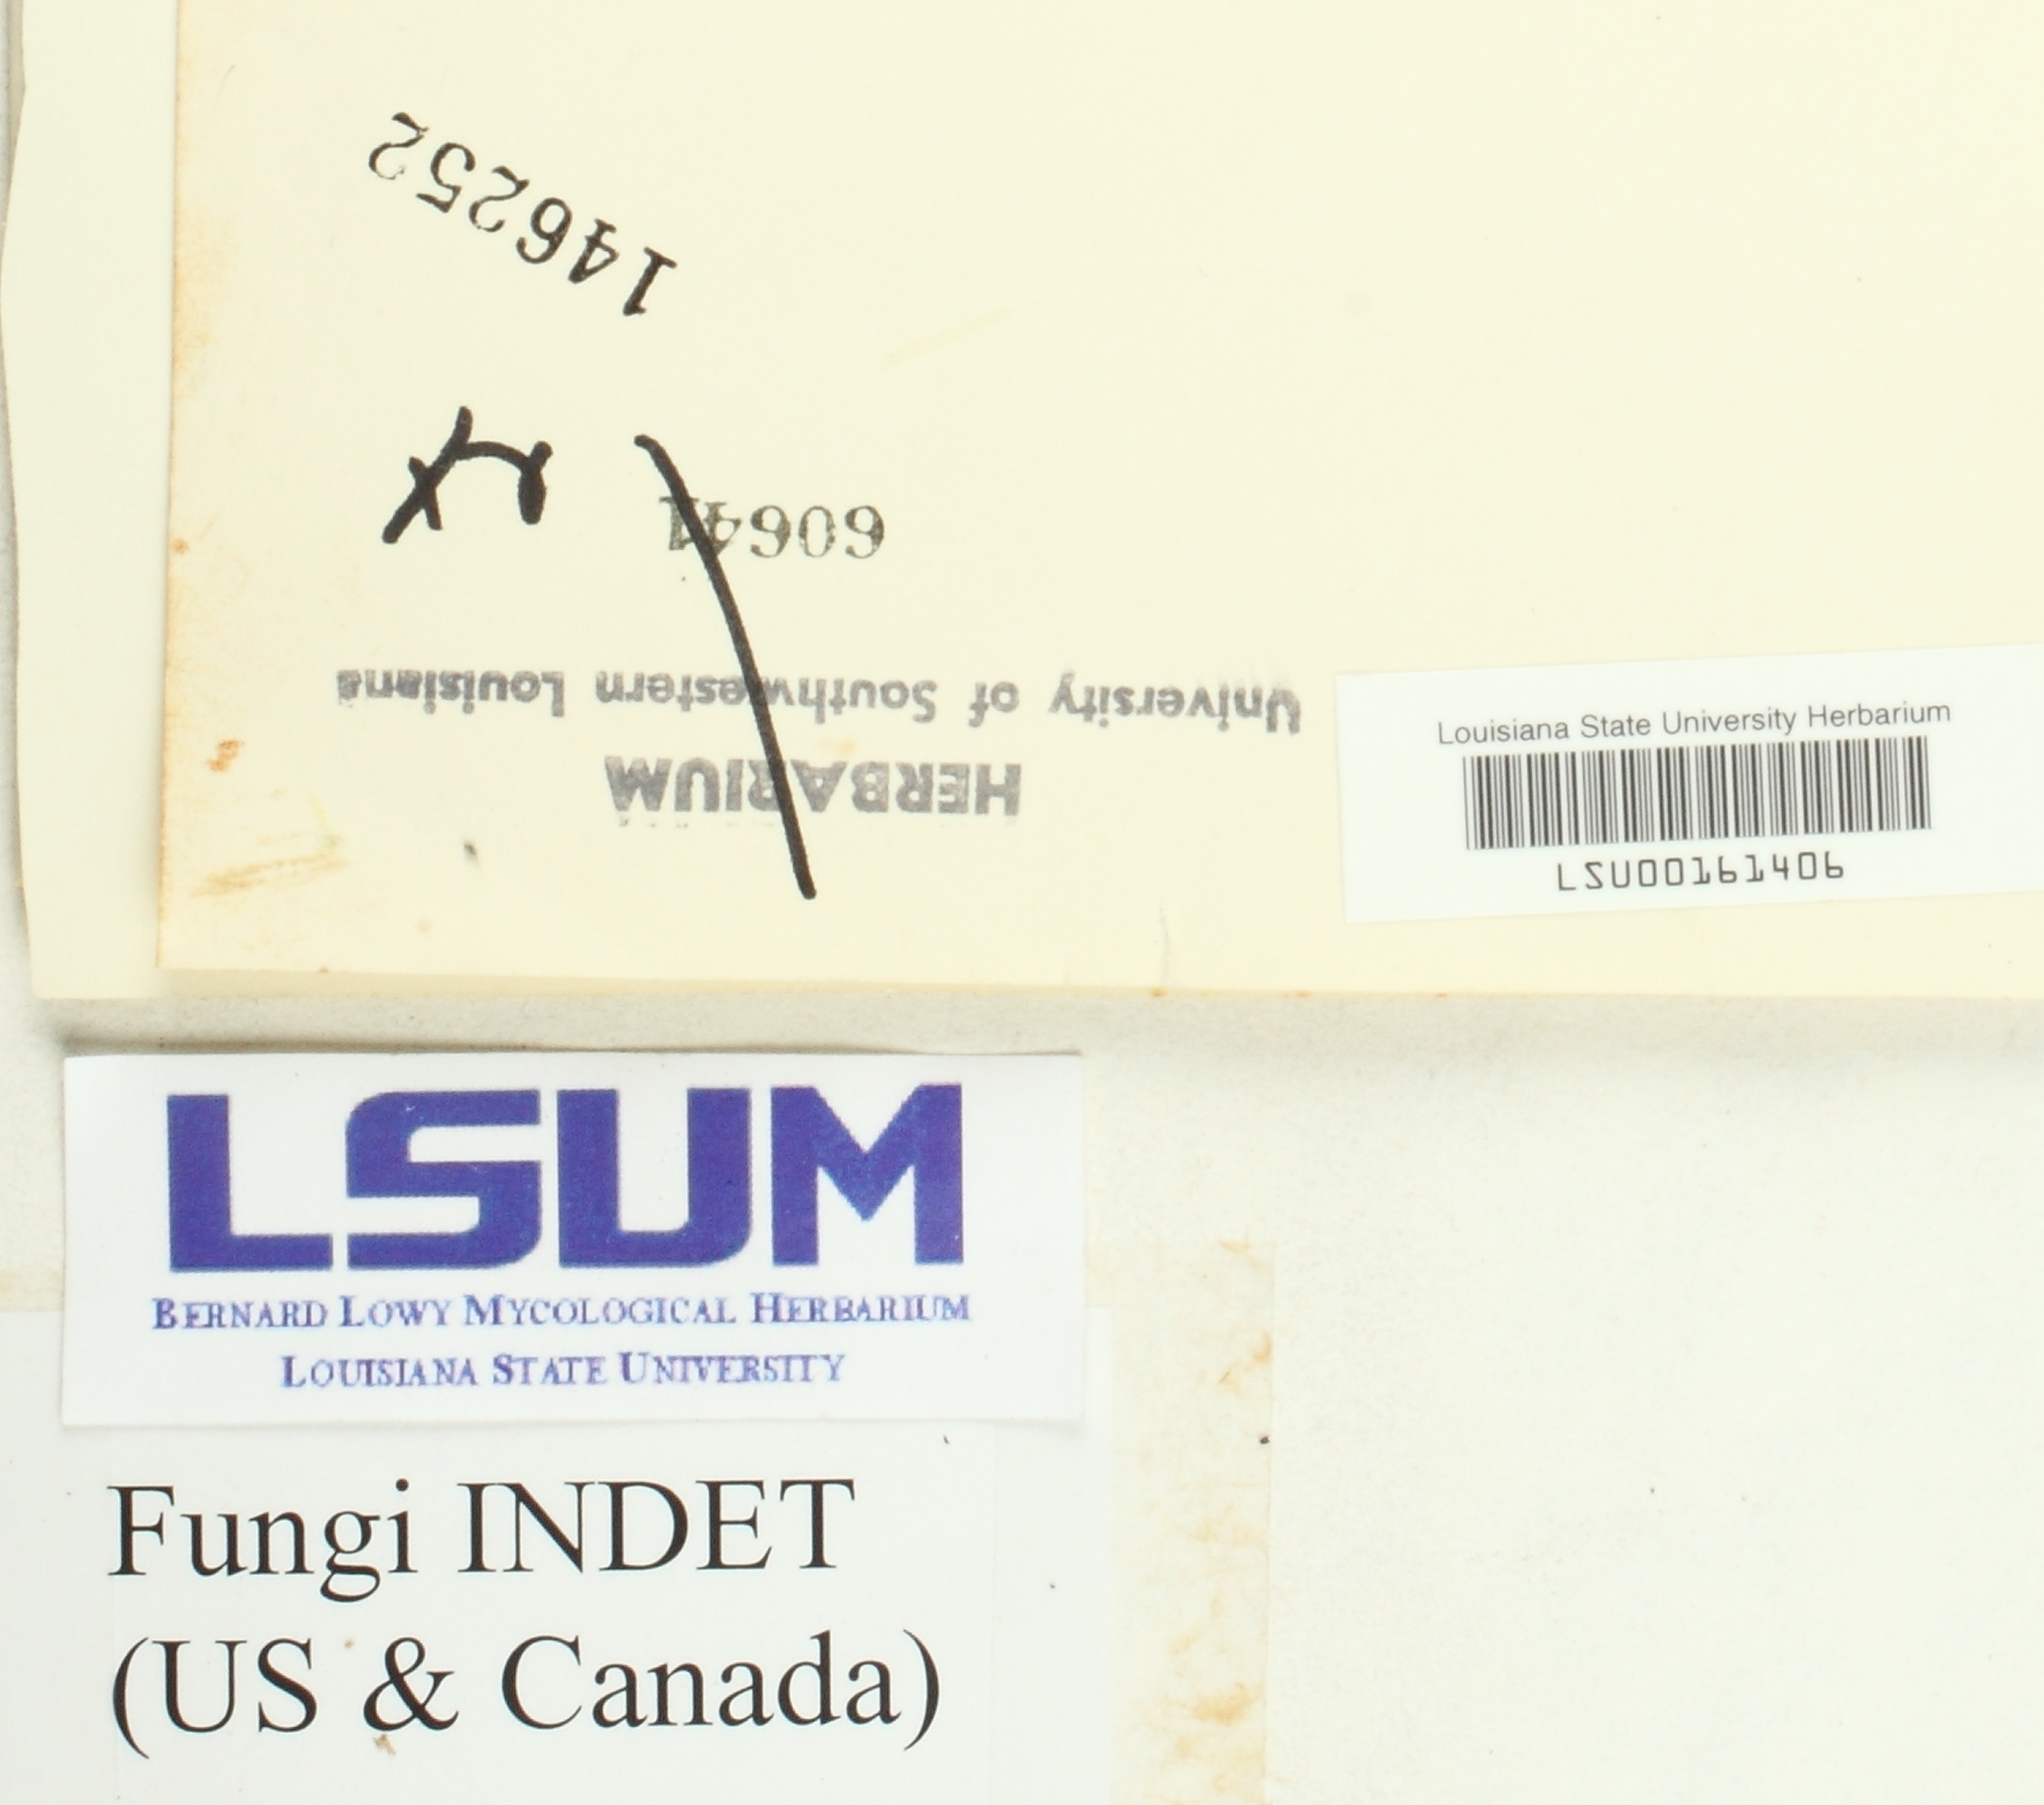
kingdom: Fungi
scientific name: Fungi
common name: Fungi
